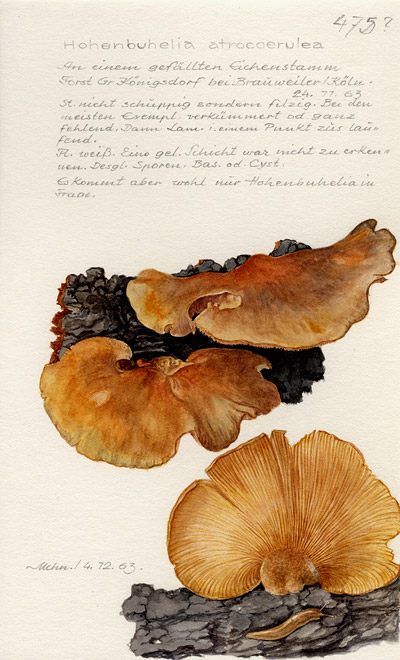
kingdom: Fungi
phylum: Basidiomycota
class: Agaricomycetes
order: Agaricales
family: Pleurotaceae
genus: Hohenbuehelia
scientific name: Hohenbuehelia atrocoerulea
